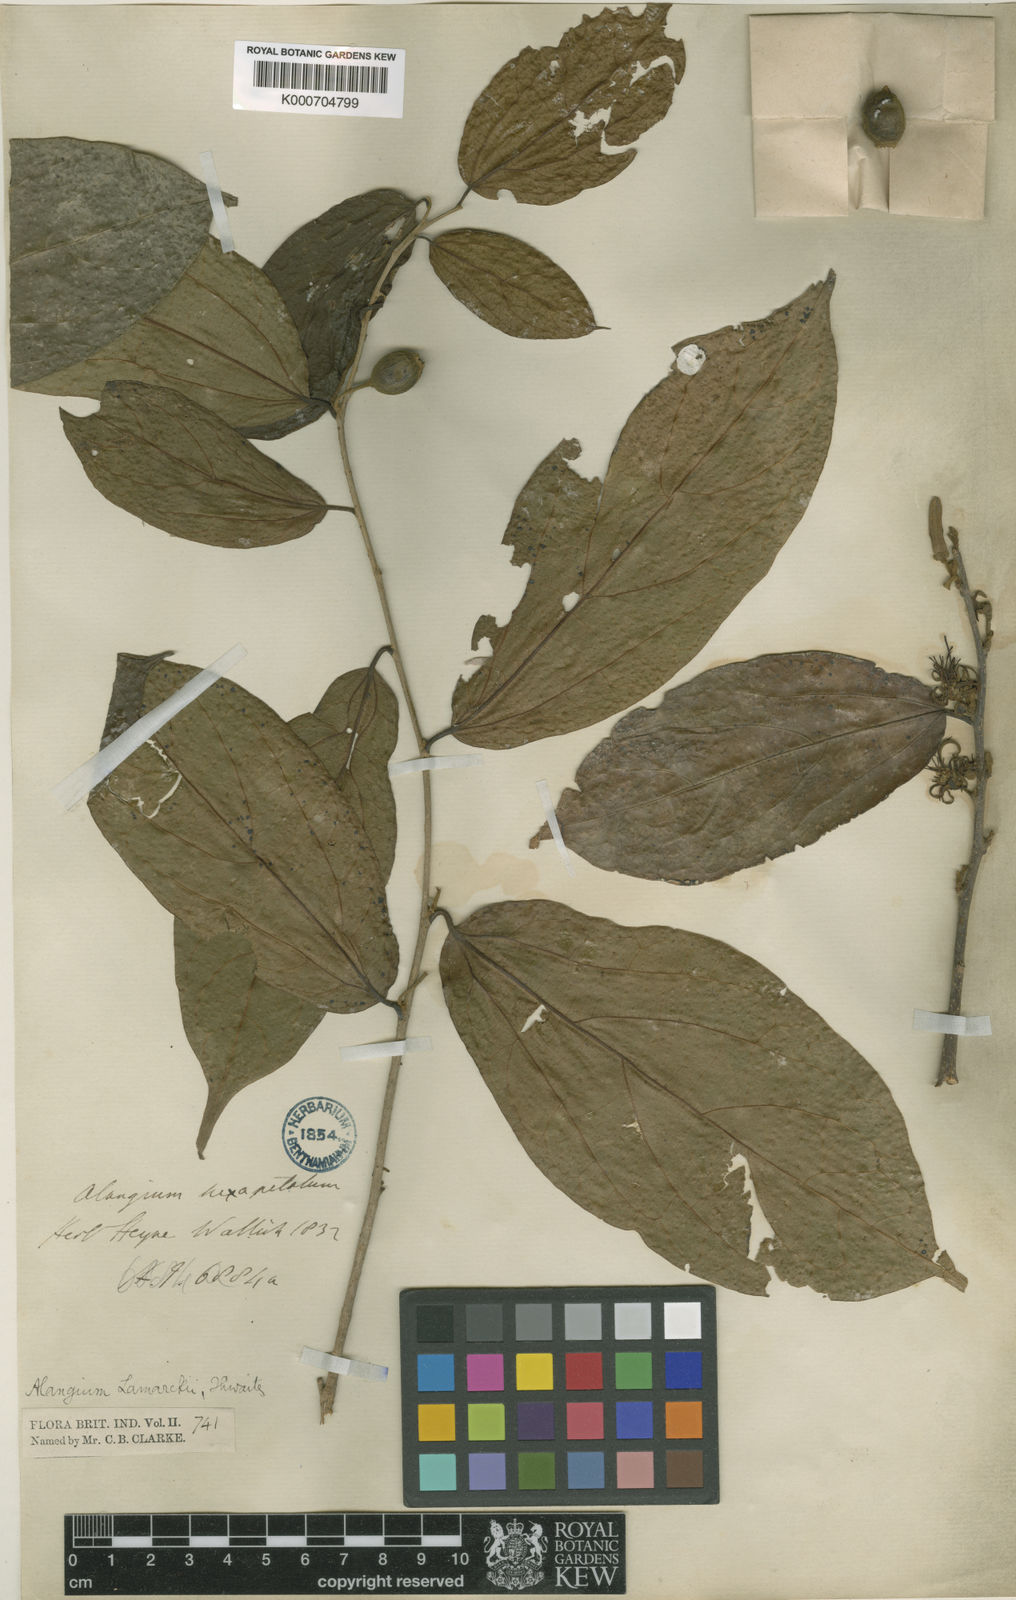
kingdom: Plantae
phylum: Tracheophyta
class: Magnoliopsida
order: Cornales
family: Cornaceae
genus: Alangium
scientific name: Alangium salviifolium
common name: Sage-leaf alangium
